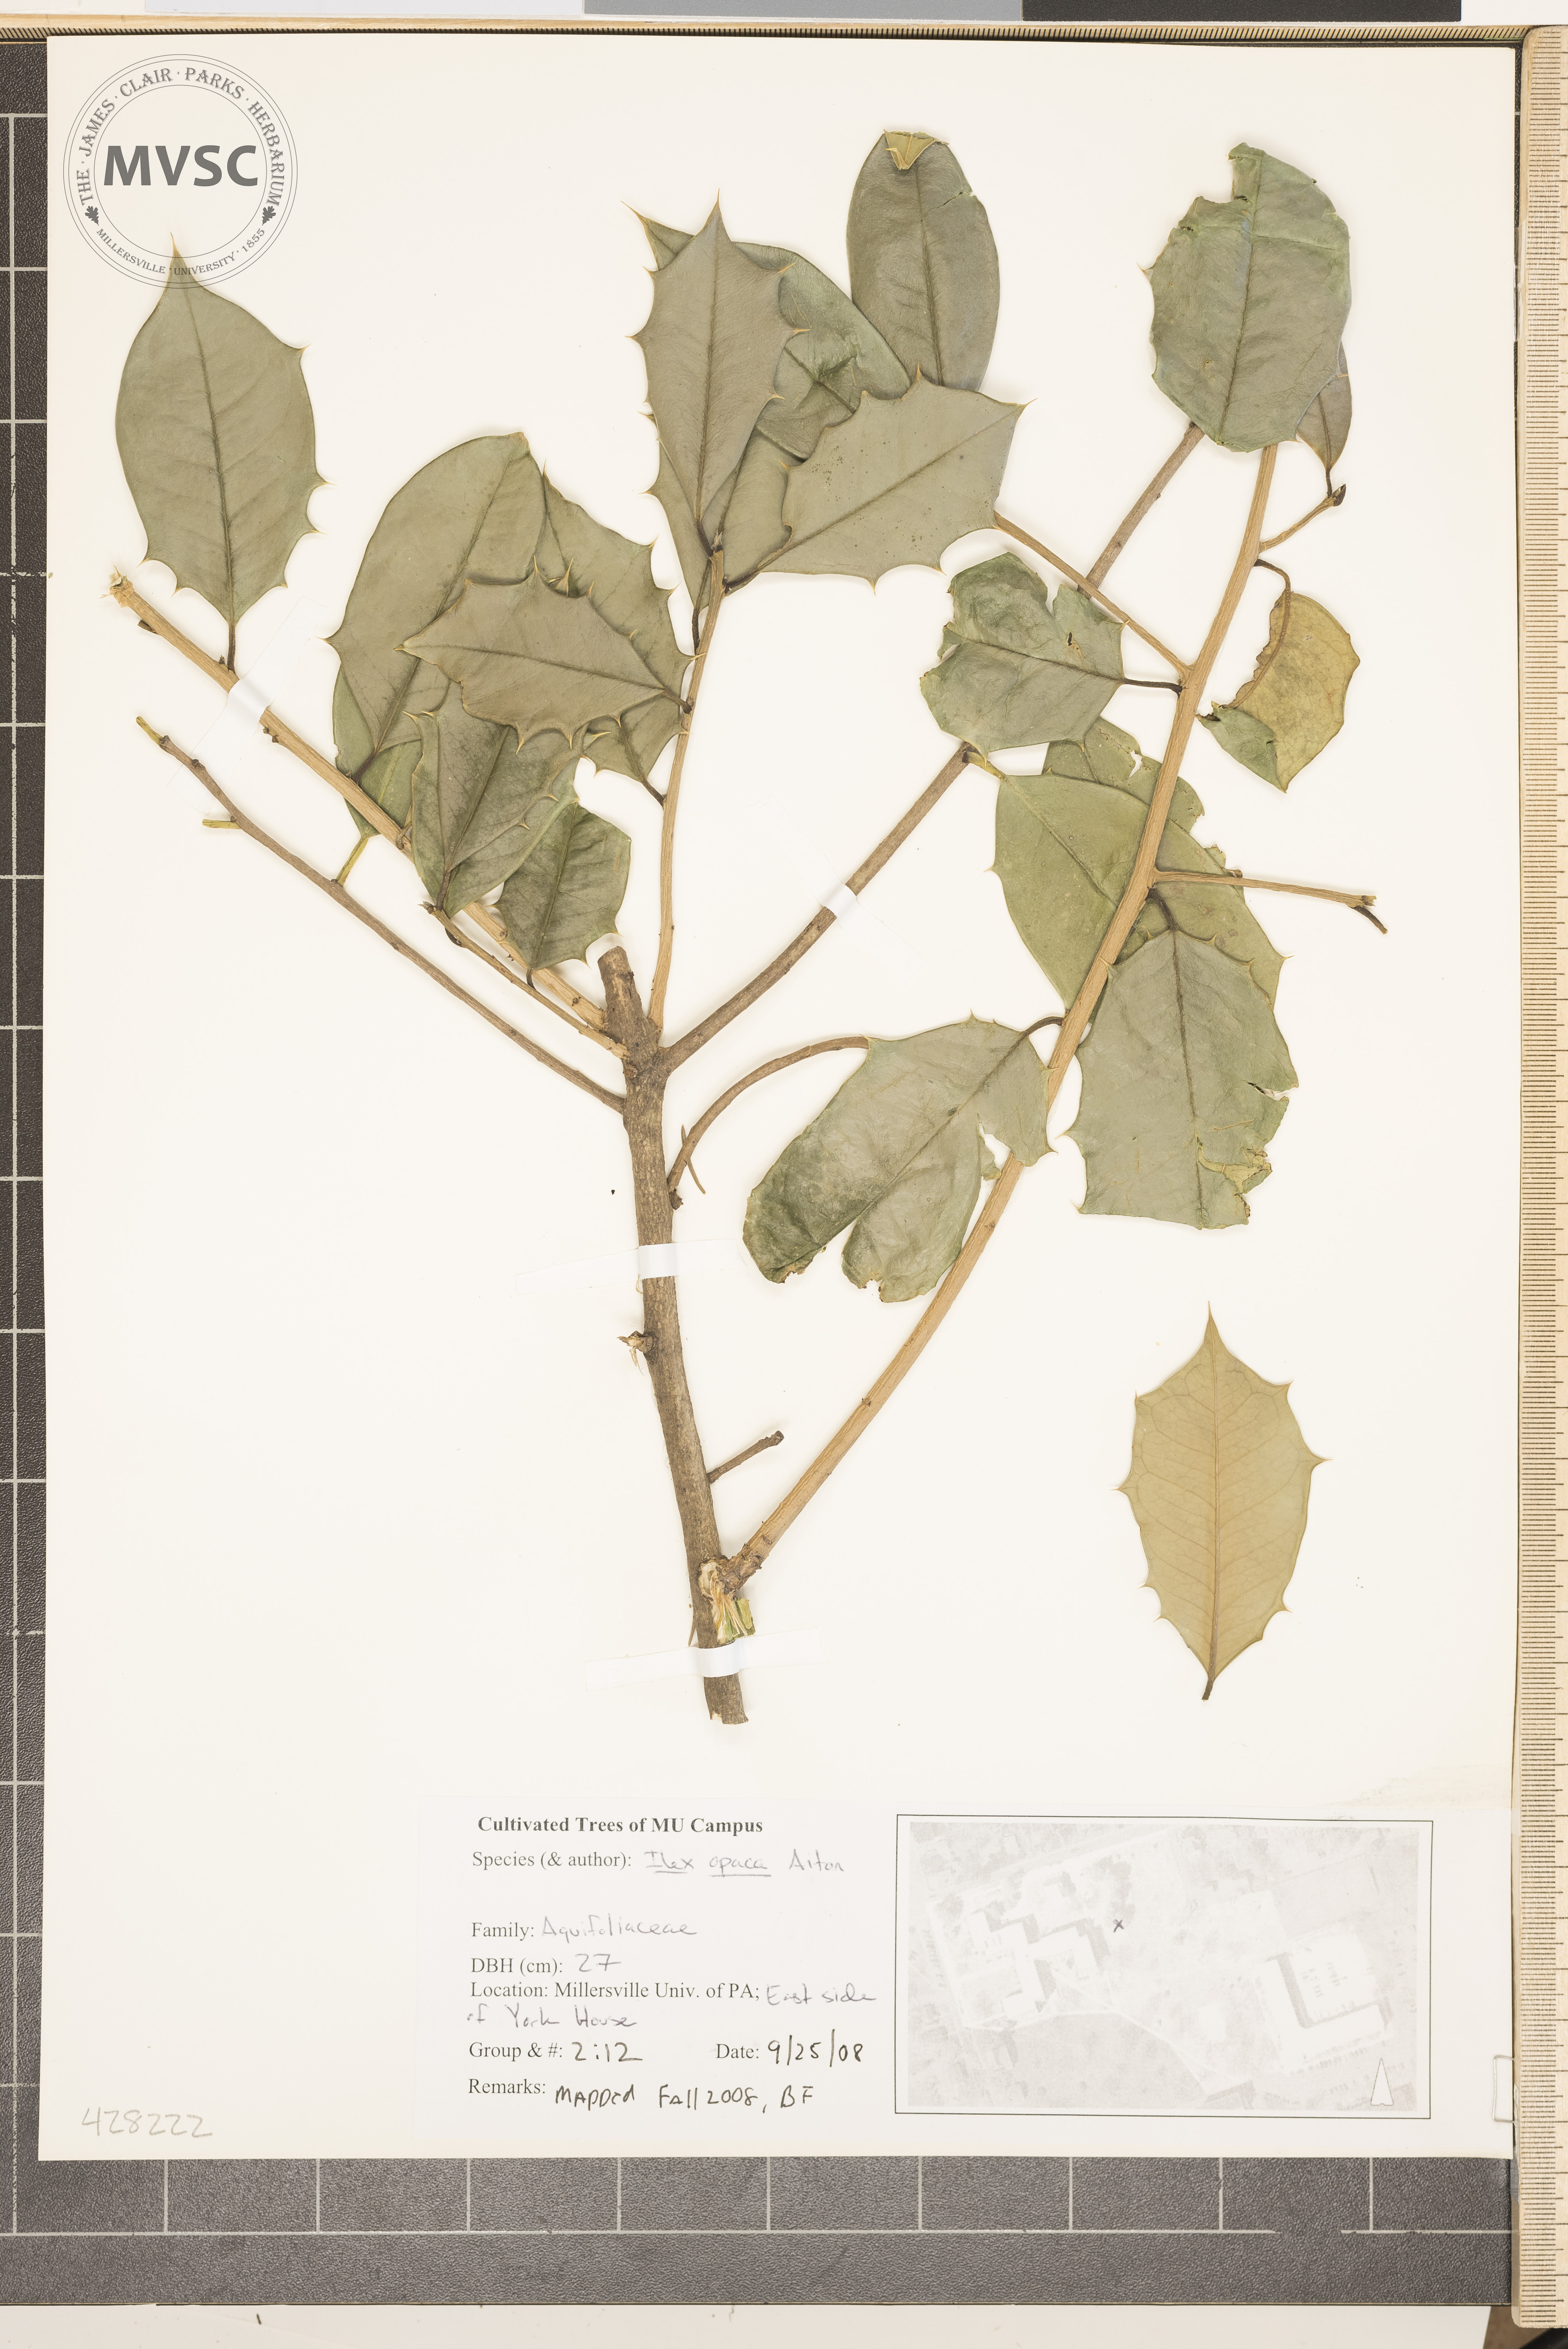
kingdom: Plantae
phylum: Tracheophyta
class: Magnoliopsida
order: Aquifoliales
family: Aquifoliaceae
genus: Ilex
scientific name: Ilex opaca
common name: American Holly
